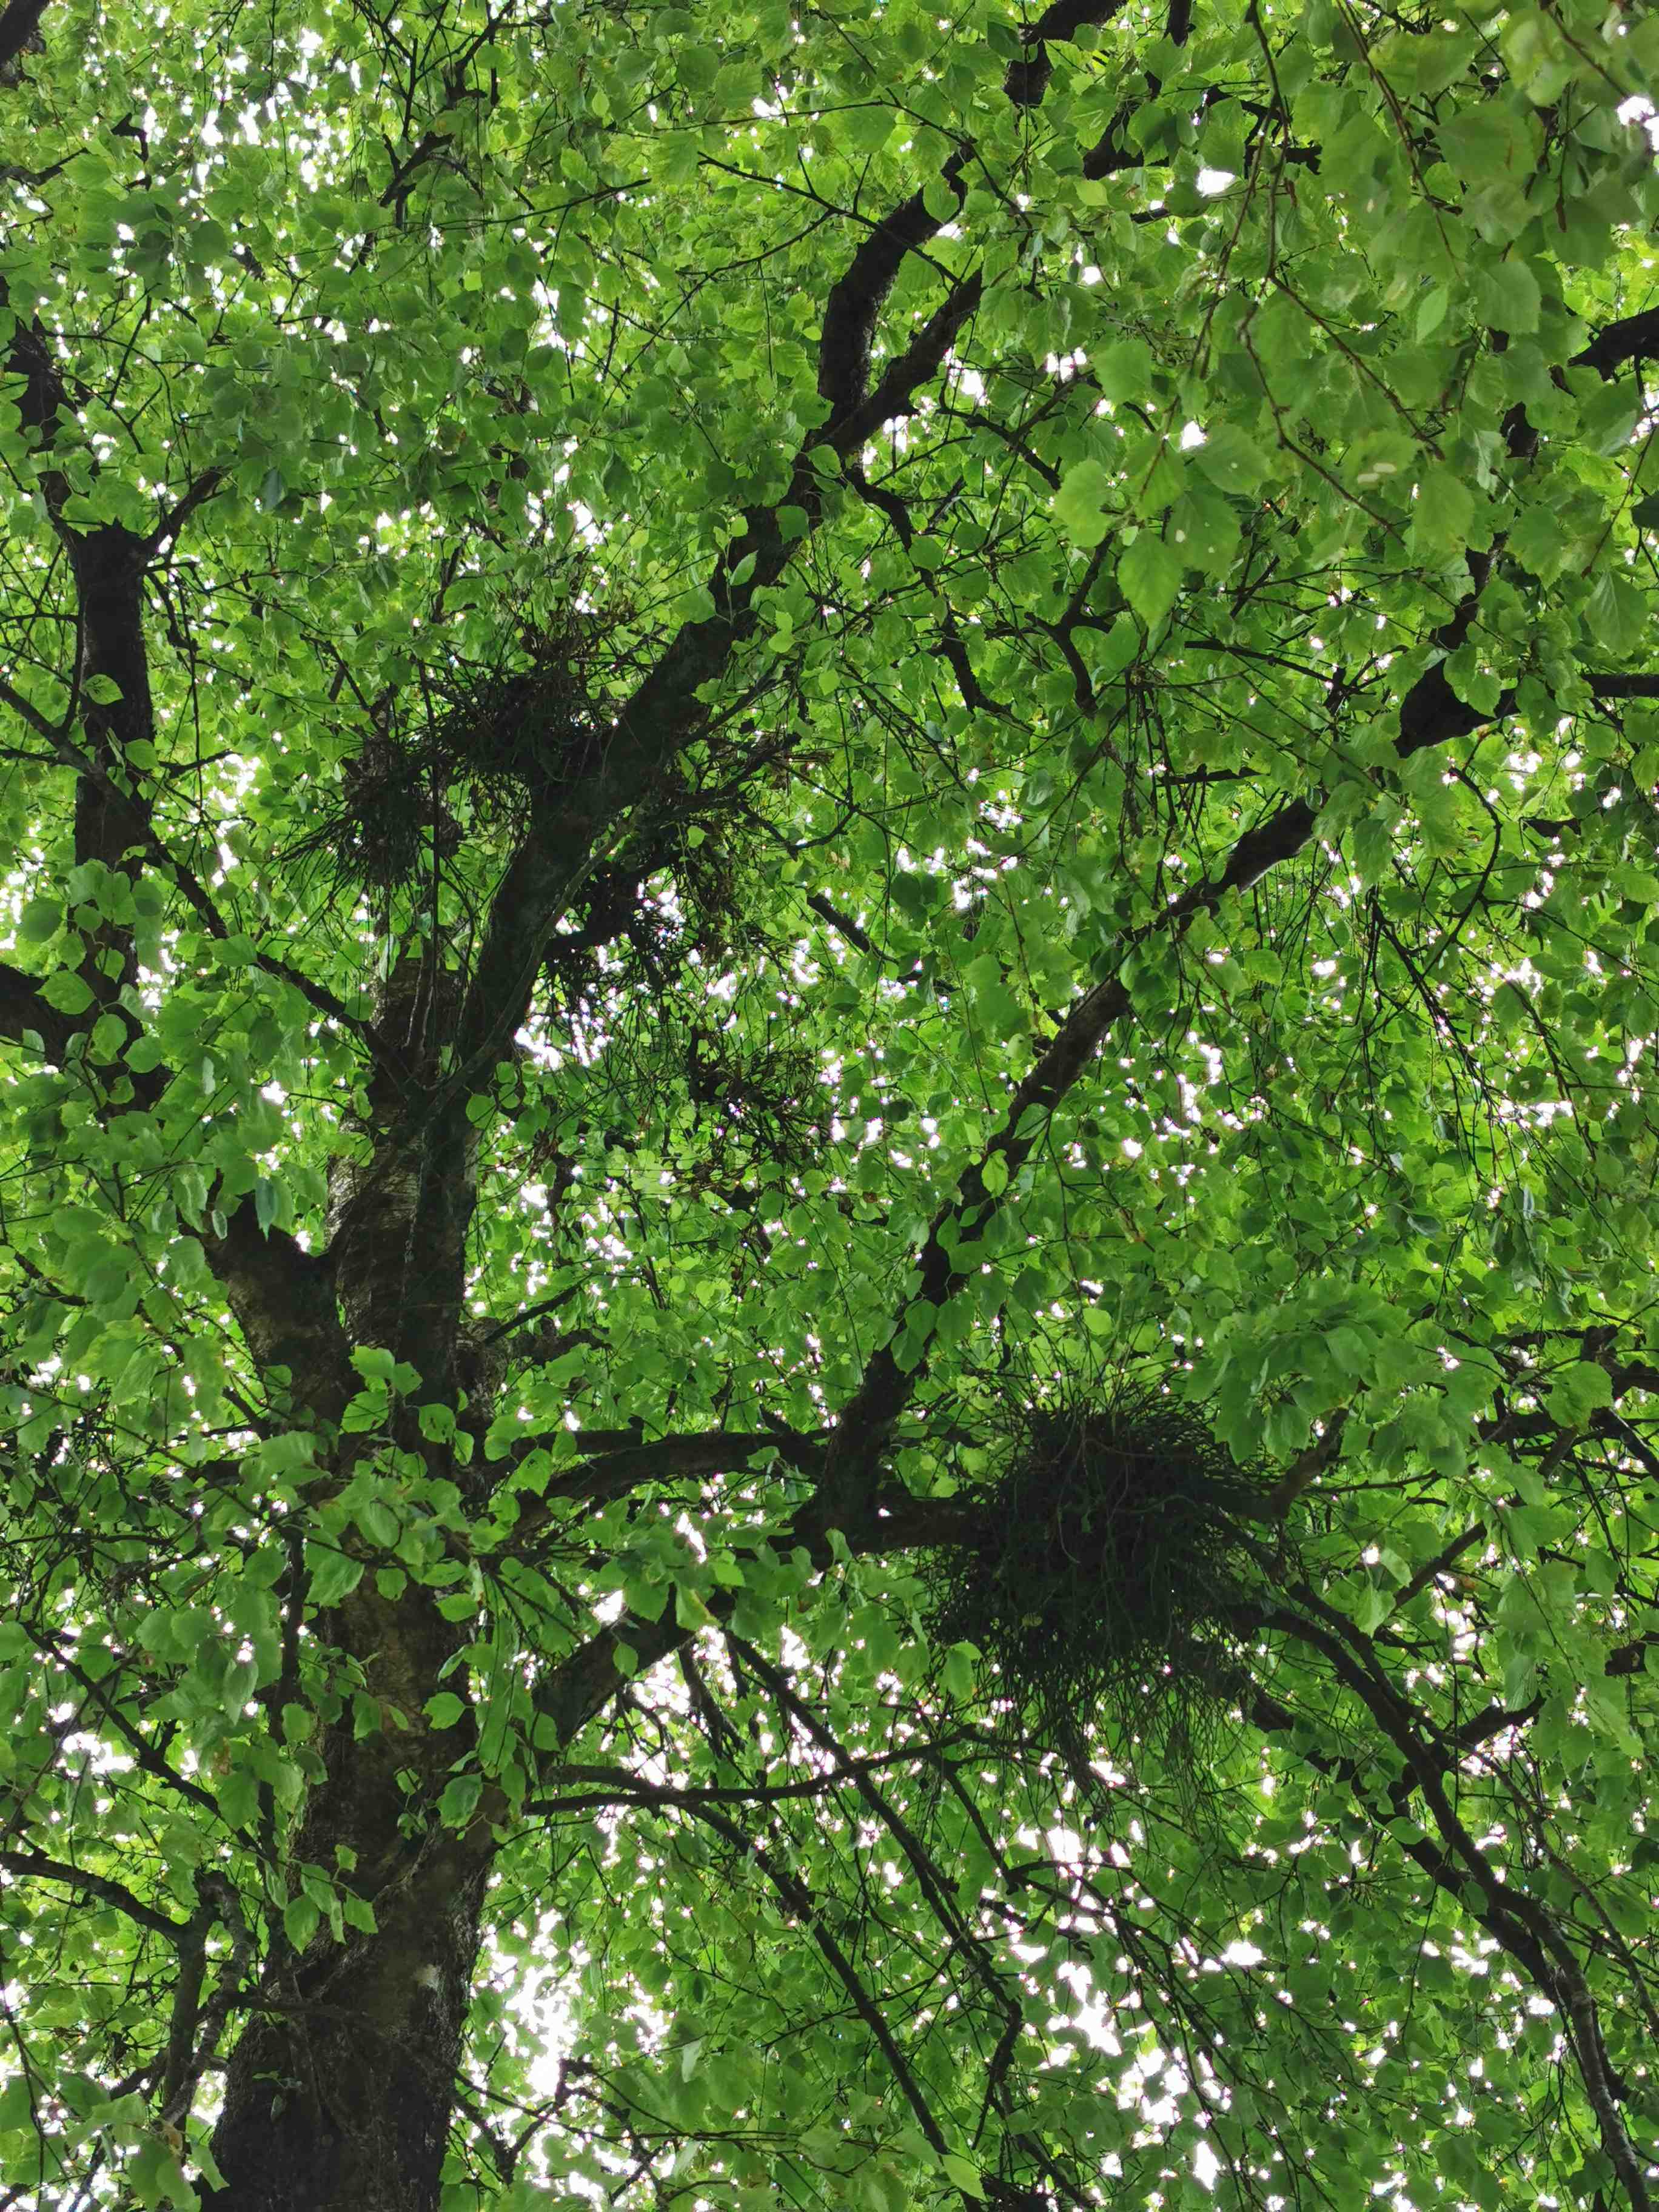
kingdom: Fungi
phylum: Ascomycota
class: Taphrinomycetes
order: Taphrinales
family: Taphrinaceae
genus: Taphrina
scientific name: Taphrina betulina
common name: hekse-sækdug
